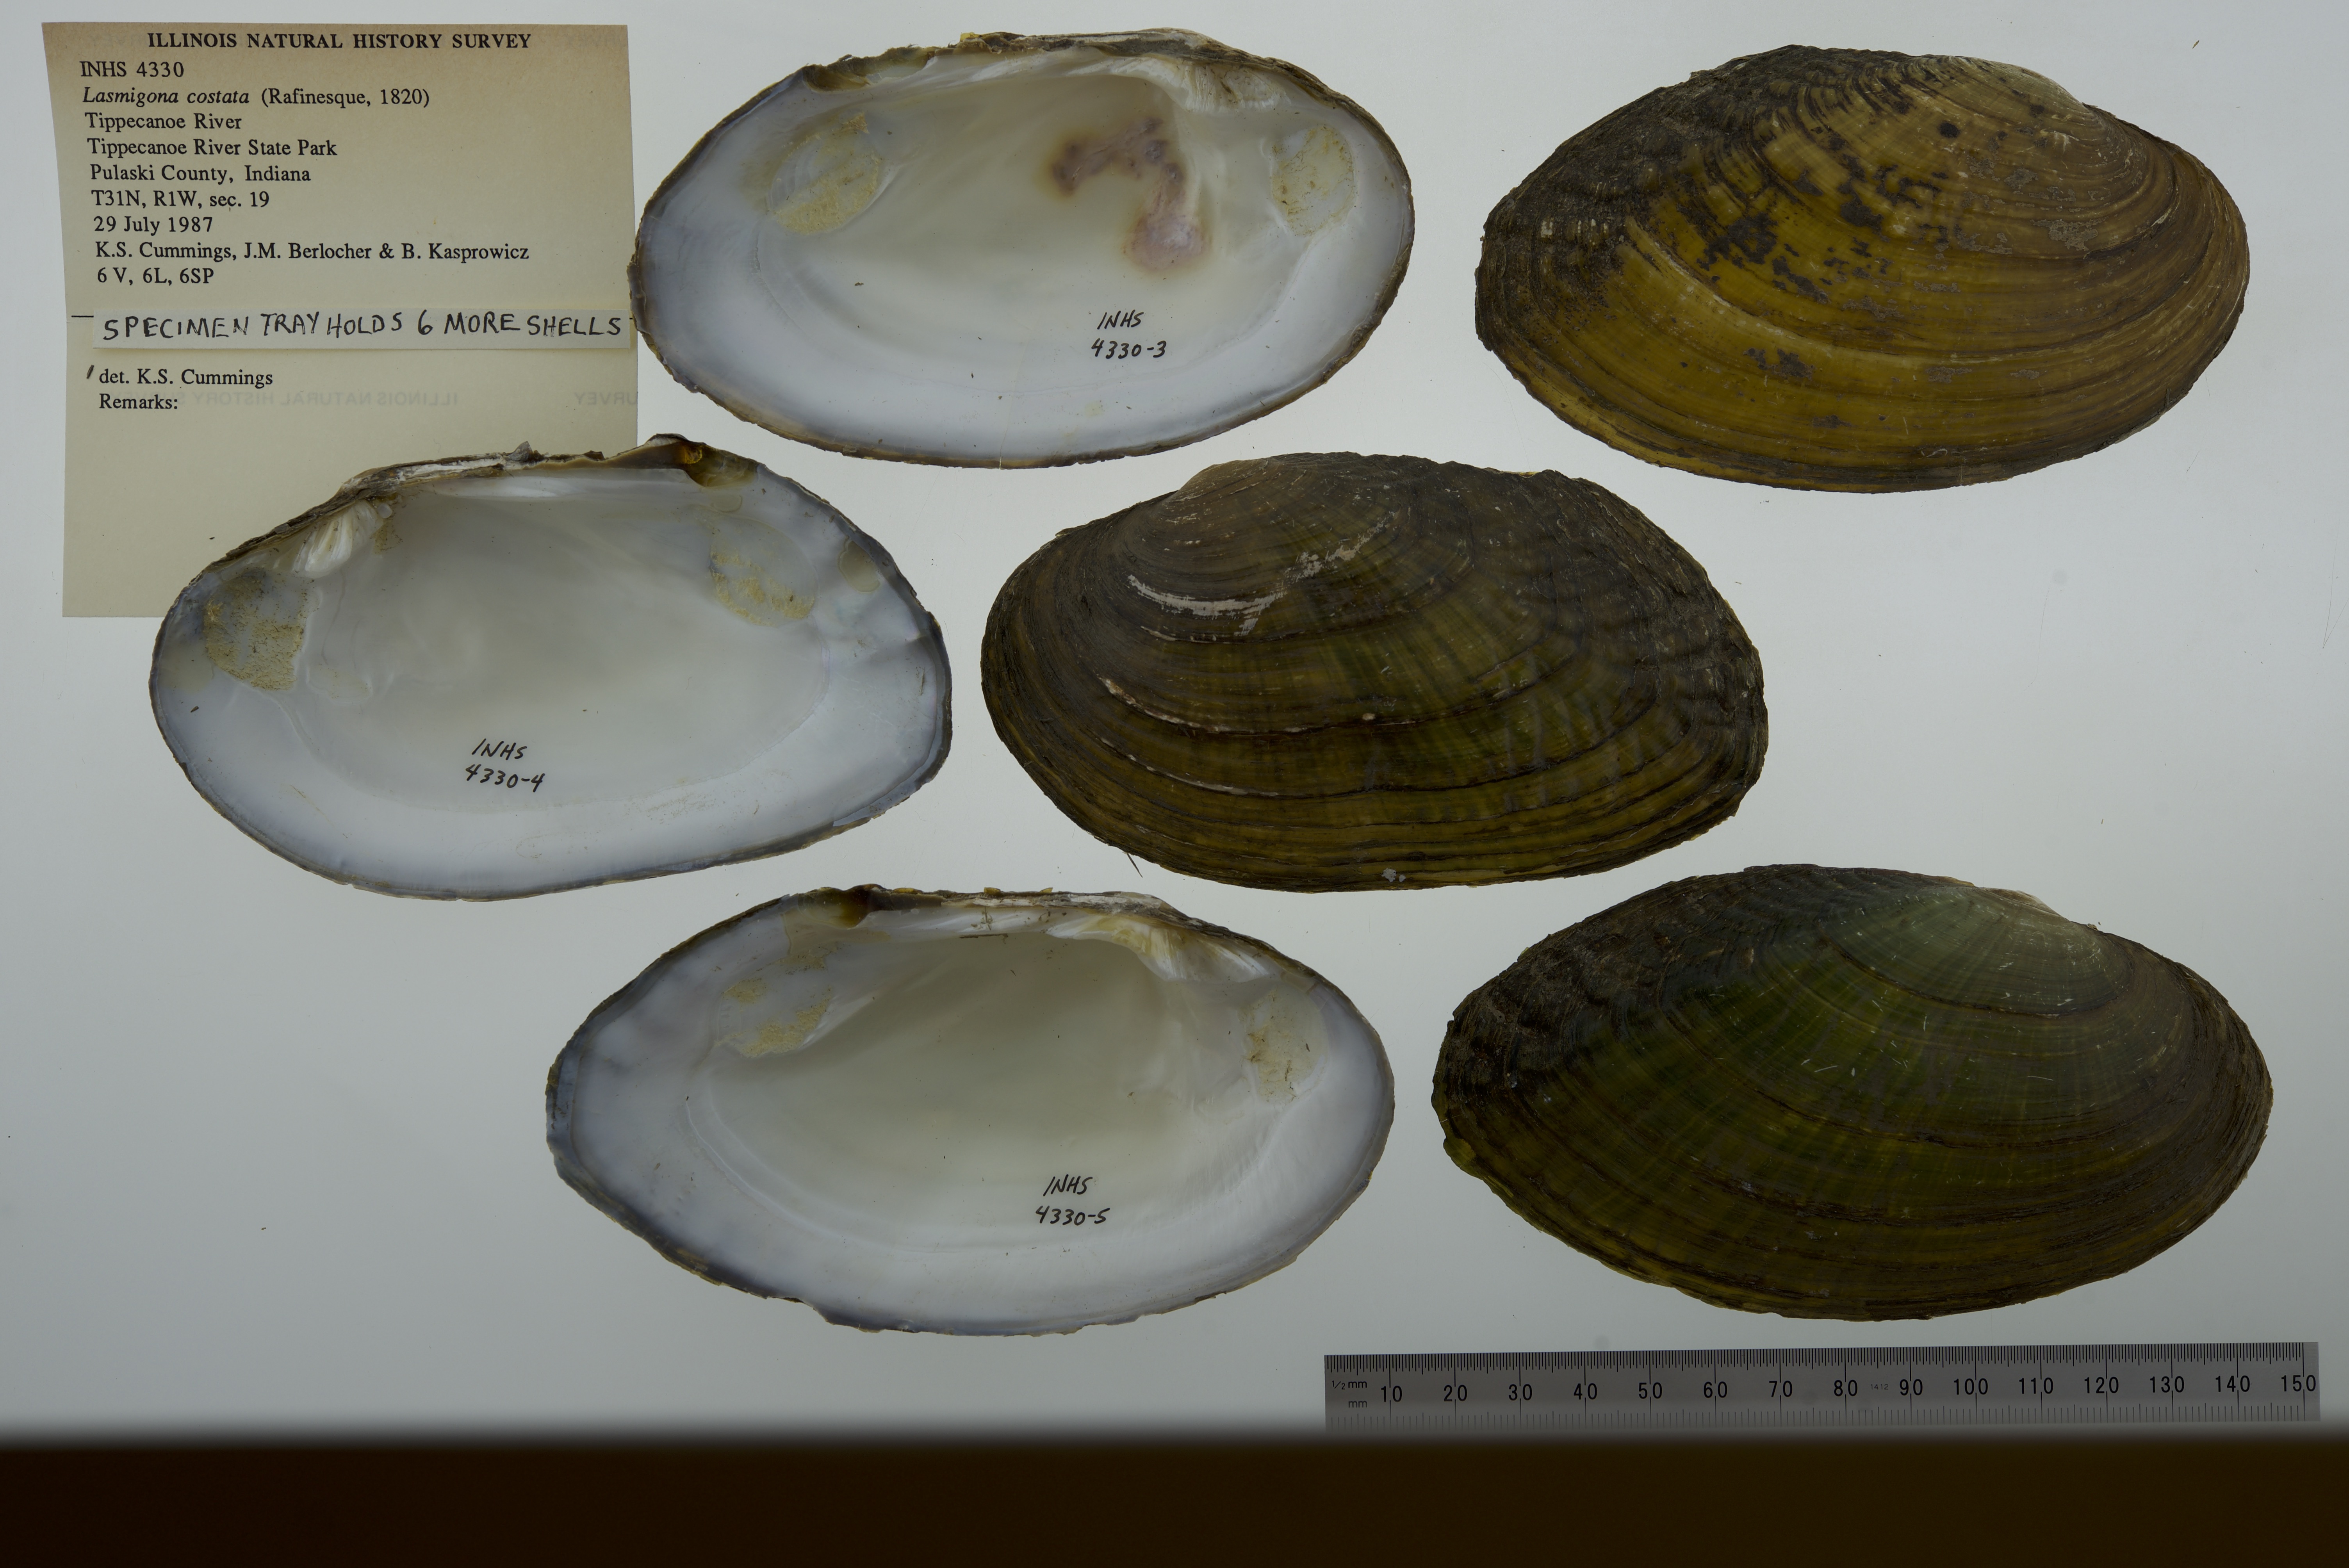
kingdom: Animalia
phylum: Mollusca
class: Bivalvia
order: Unionida
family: Unionidae
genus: Lasmigona
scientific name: Lasmigona costata
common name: Flutedshell
